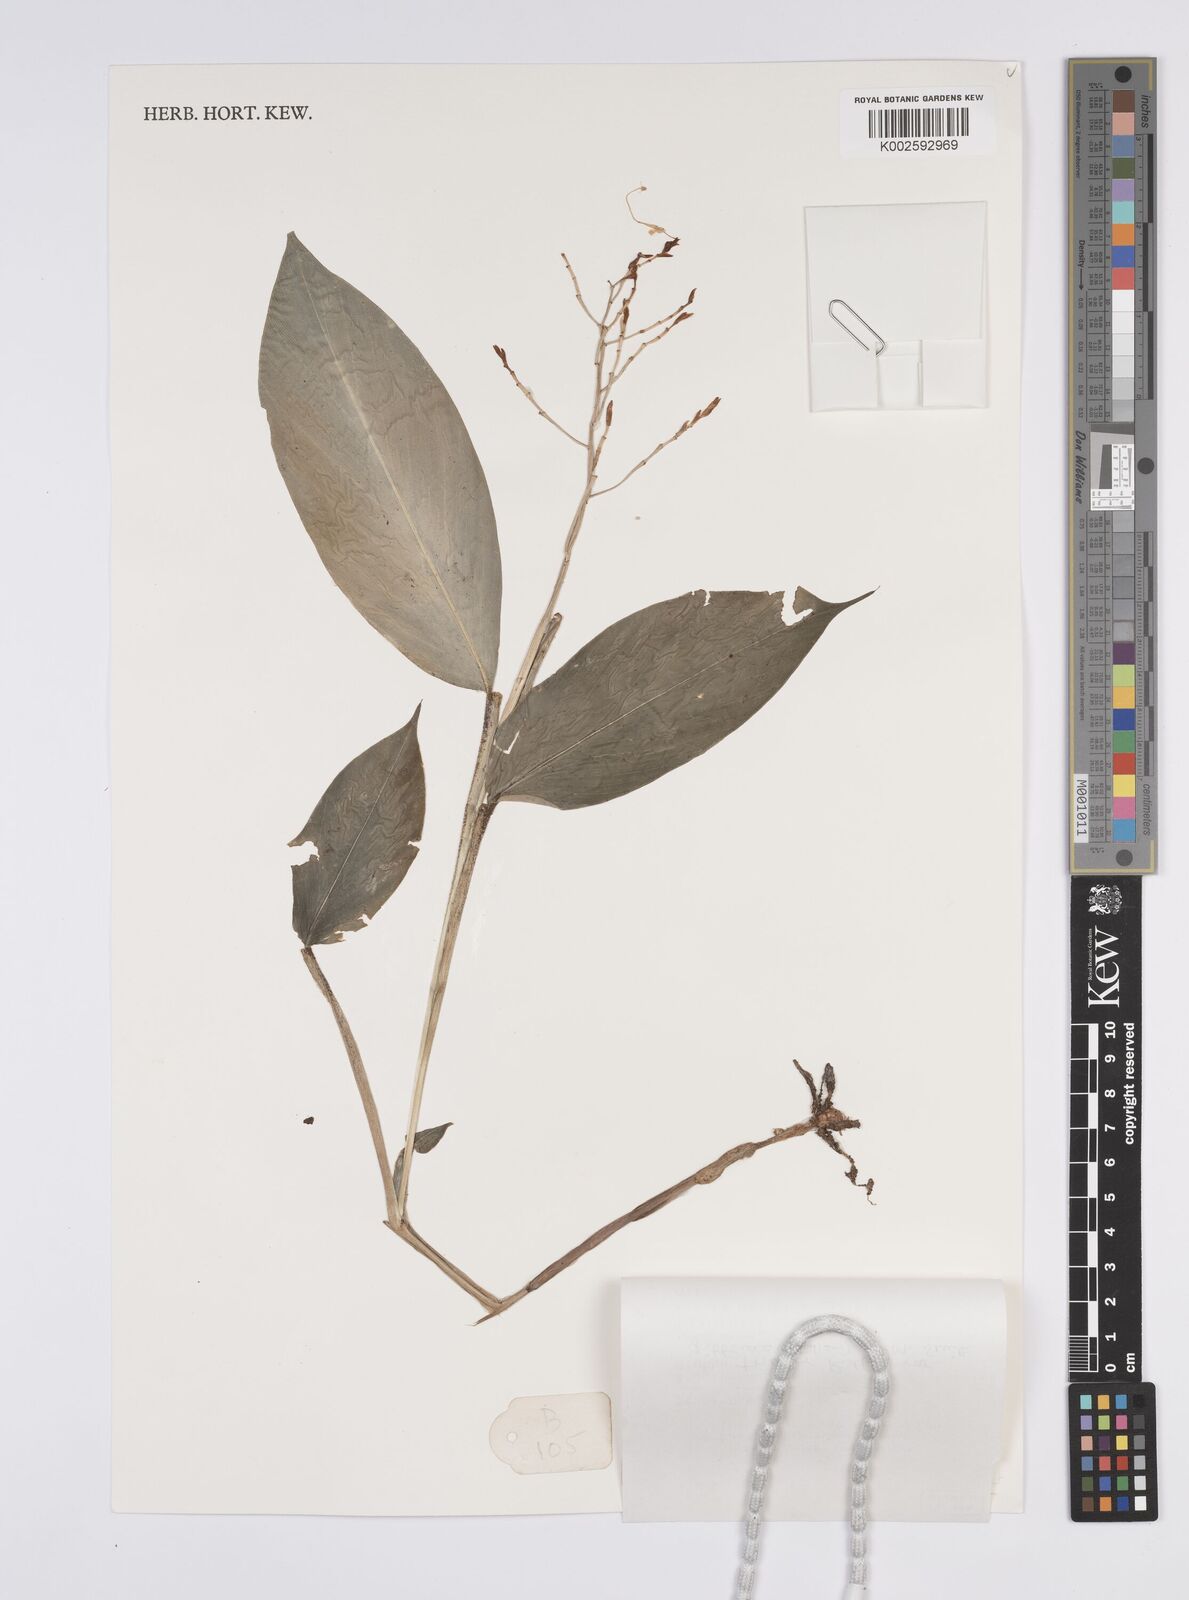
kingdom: Plantae
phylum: Tracheophyta
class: Liliopsida
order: Zingiberales
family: Zingiberaceae
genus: Globba
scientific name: Globba tricolor
